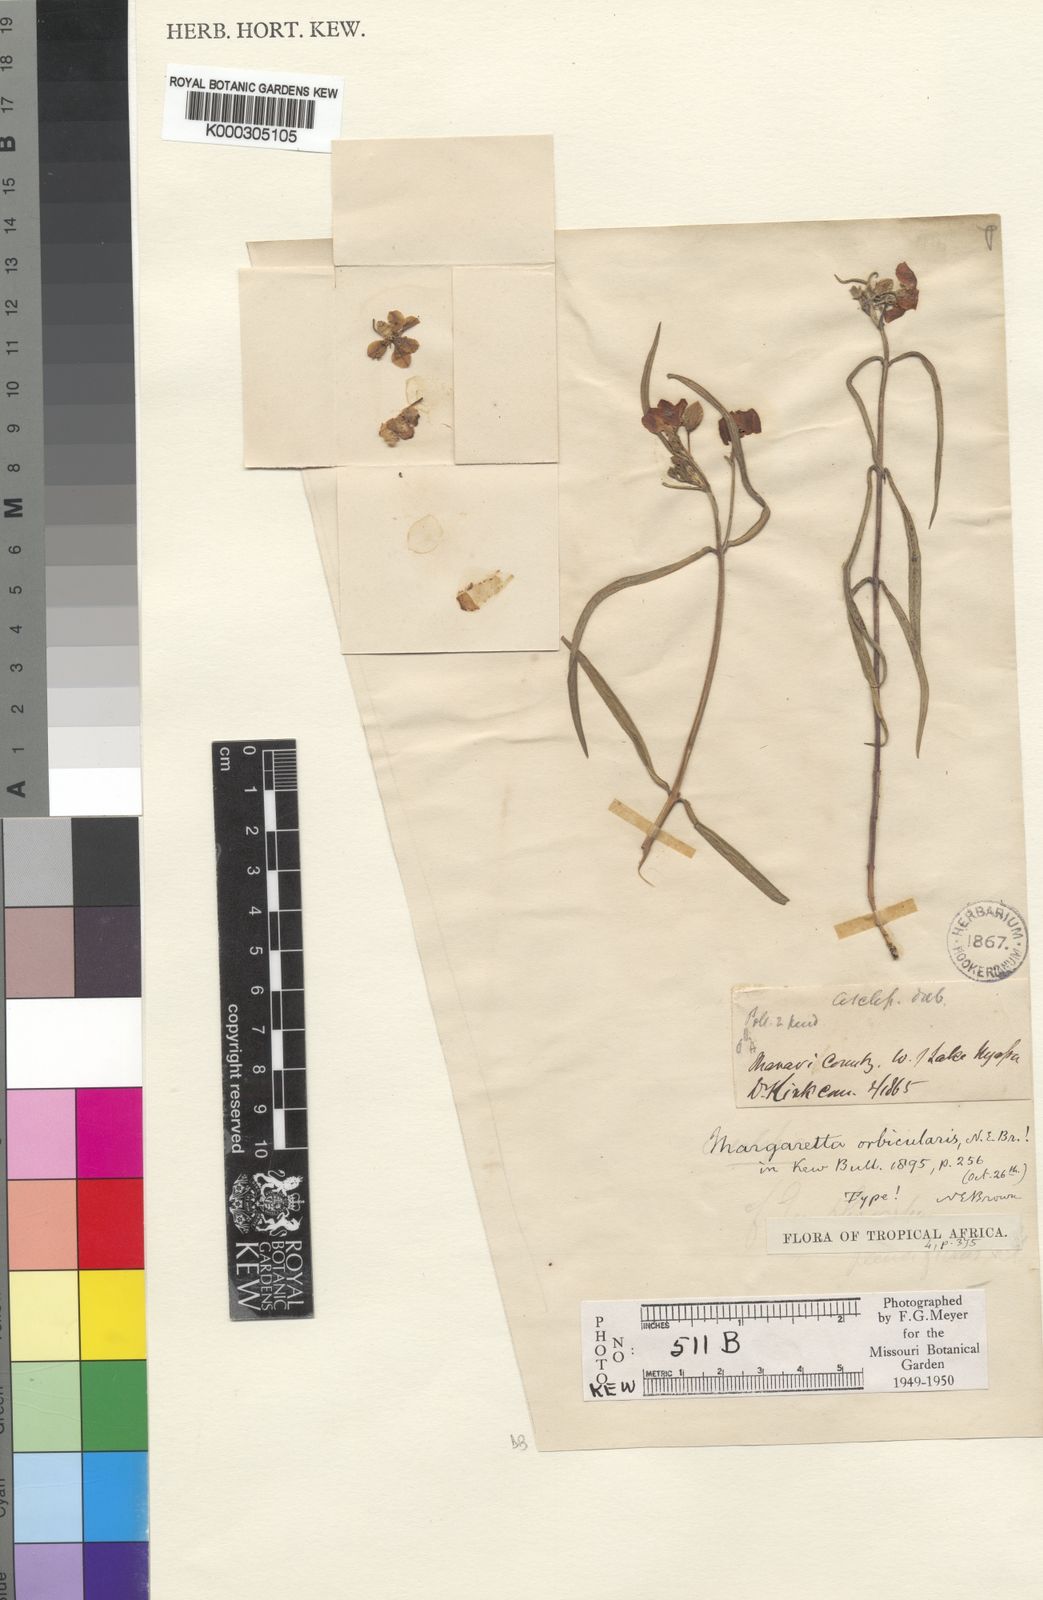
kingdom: Plantae
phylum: Tracheophyta
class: Magnoliopsida
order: Gentianales
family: Apocynaceae
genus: Margaretta
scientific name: Margaretta rosea
